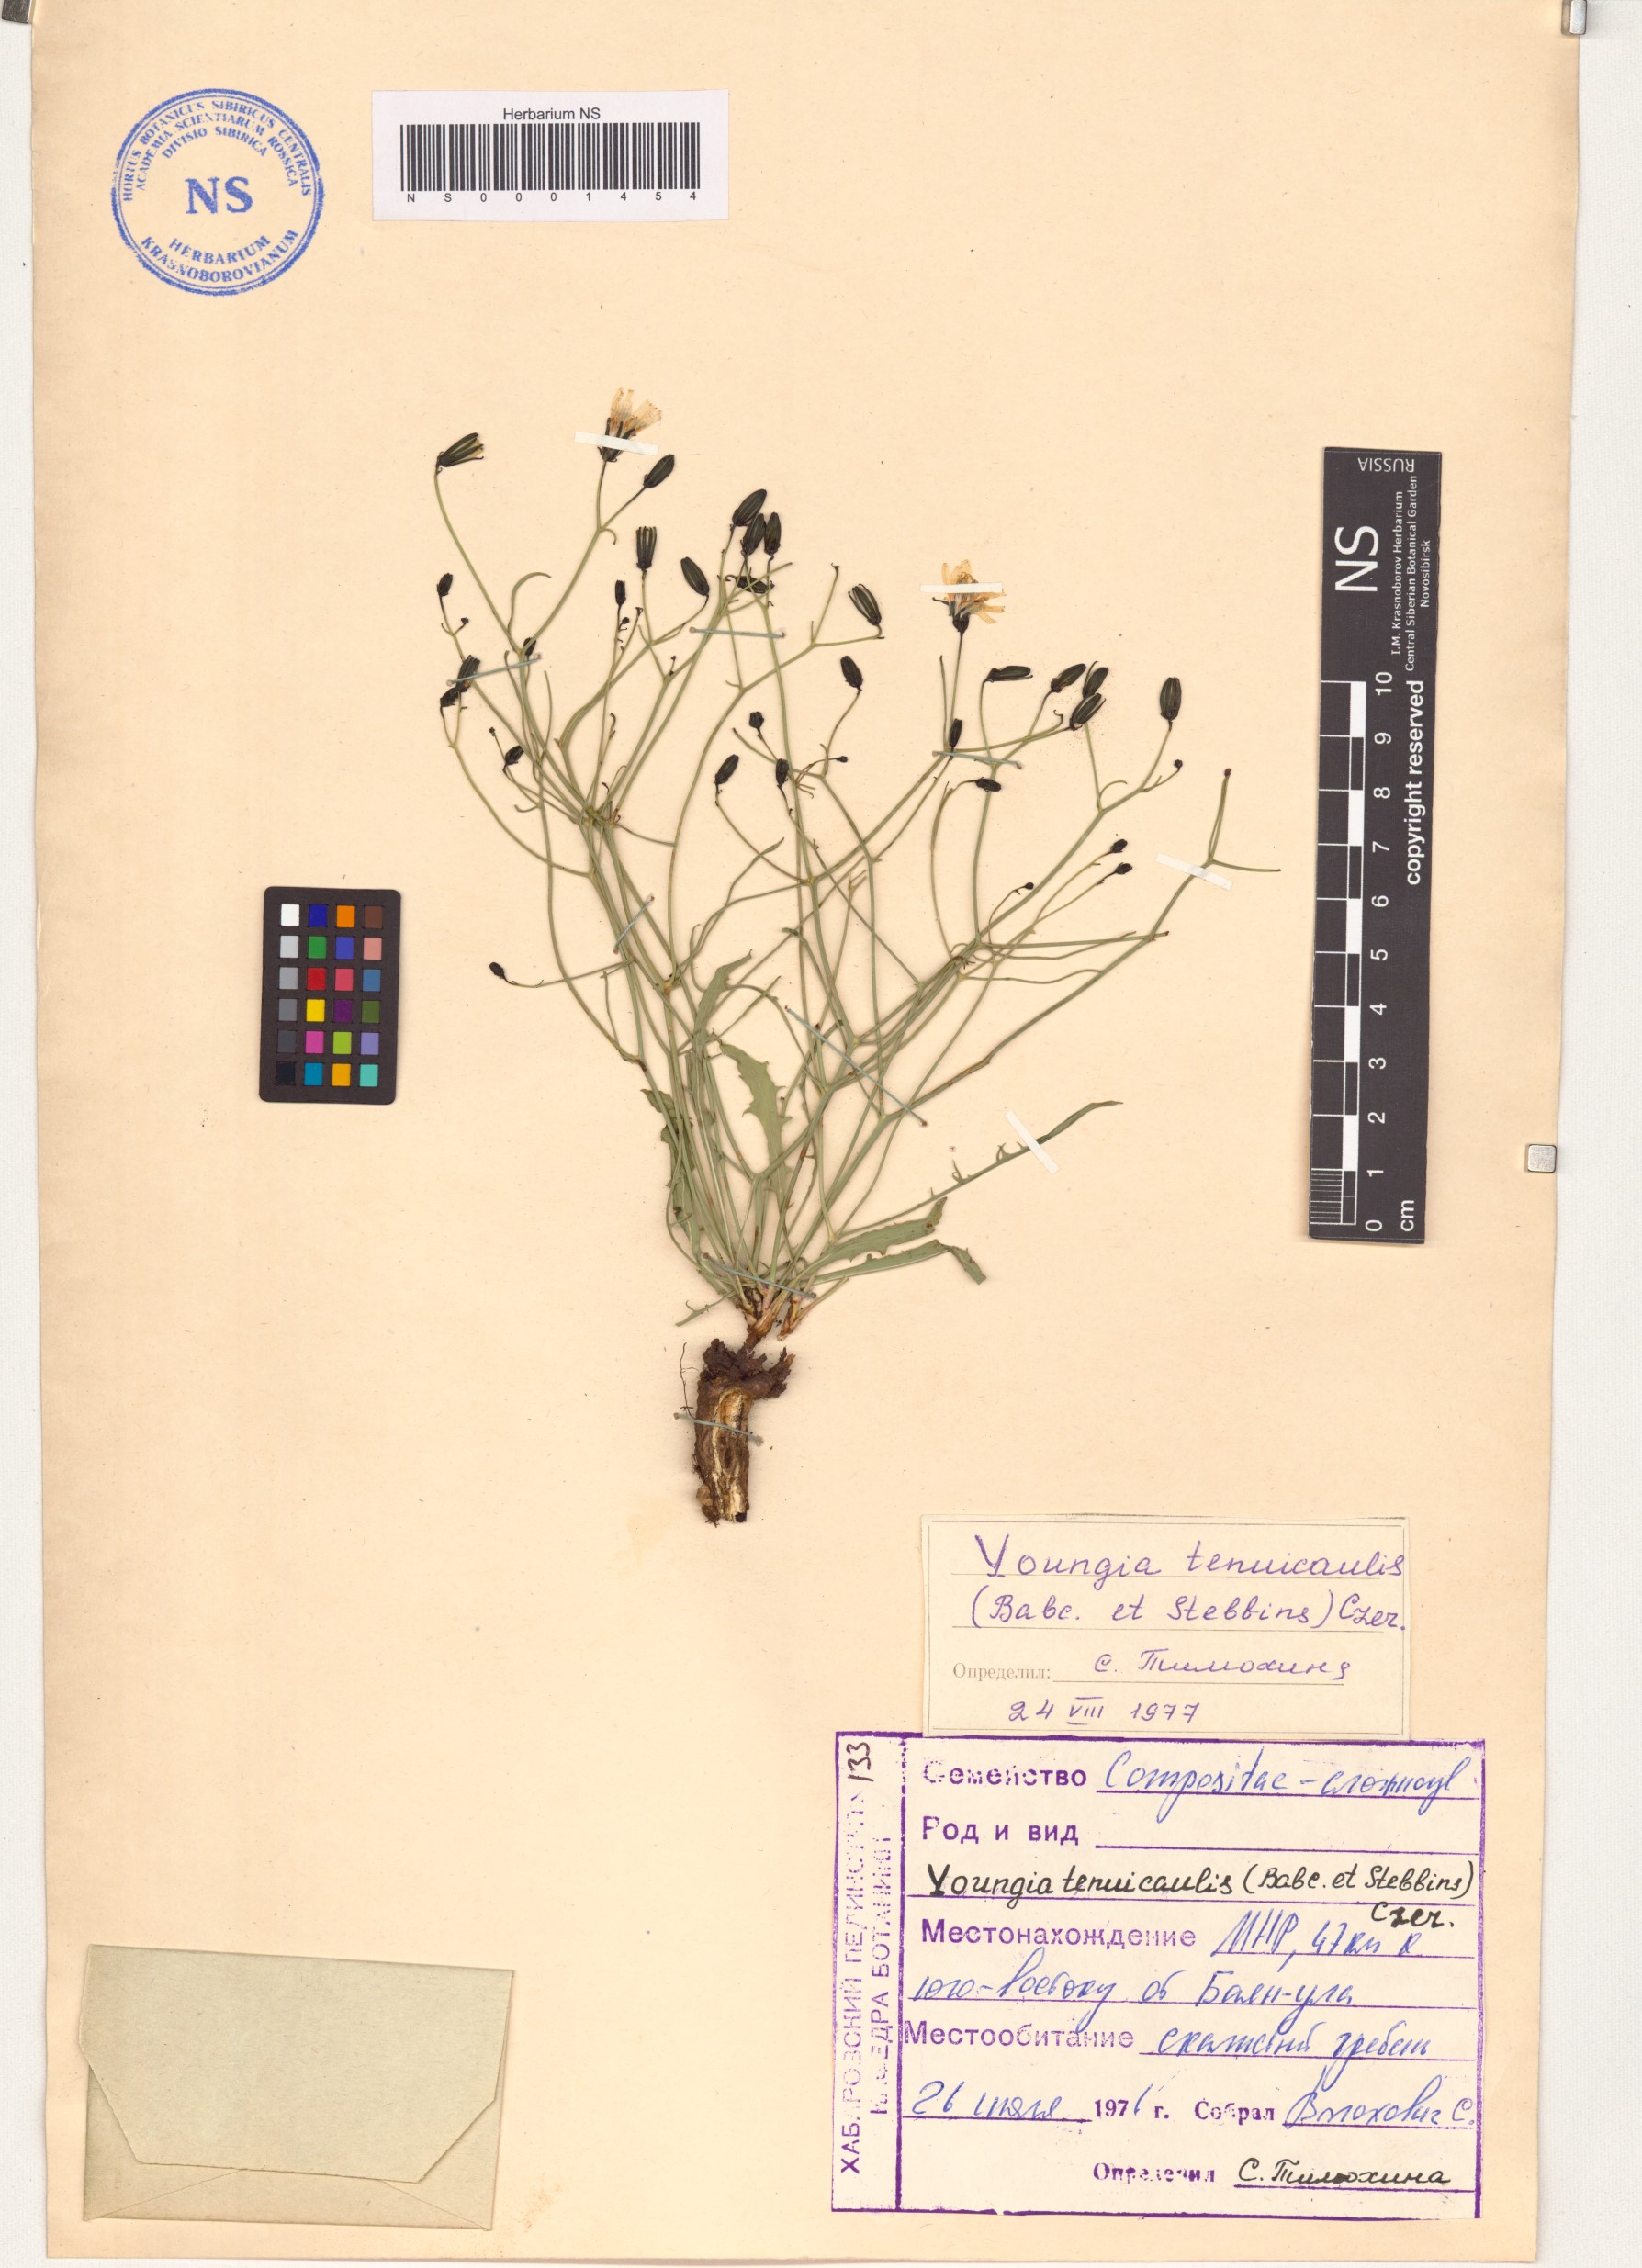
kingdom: Plantae
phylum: Tracheophyta
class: Magnoliopsida
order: Asterales
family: Asteraceae
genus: Crepidiastrum
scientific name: Crepidiastrum akagii
